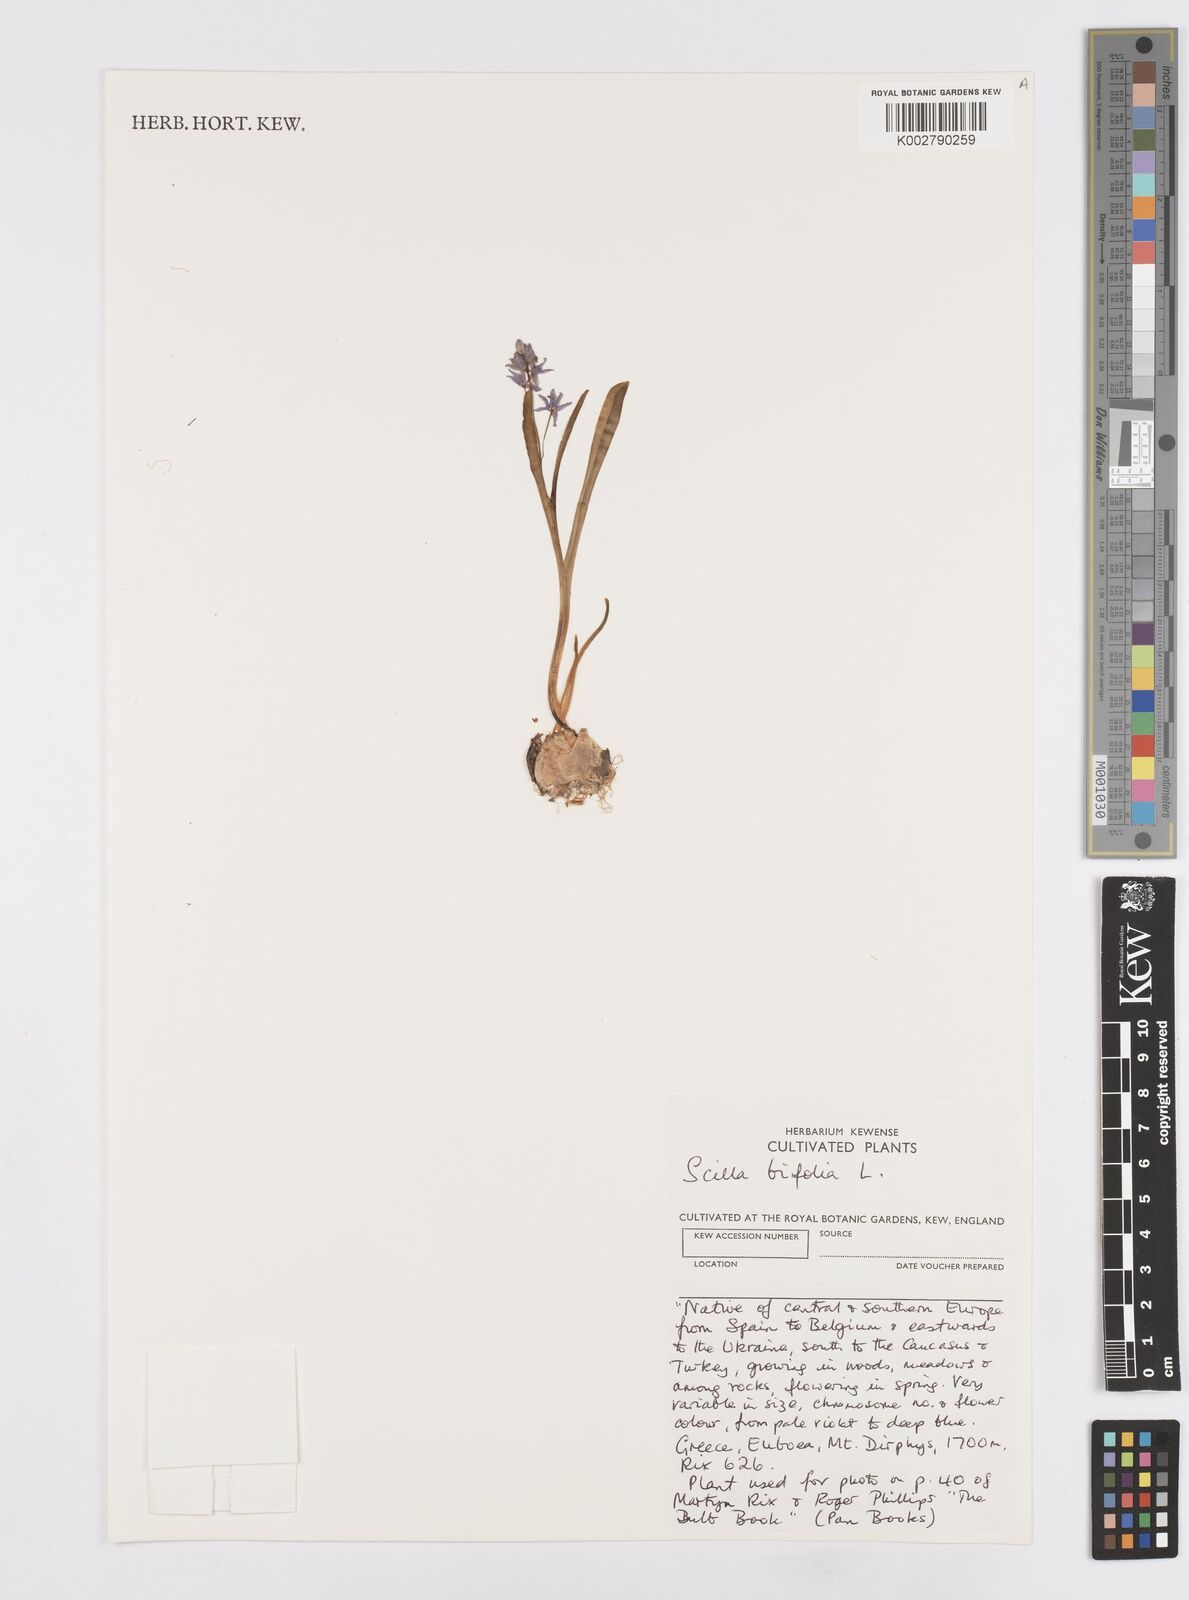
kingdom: Plantae
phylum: Tracheophyta
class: Liliopsida
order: Asparagales
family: Asparagaceae
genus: Scilla
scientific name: Scilla bifolia
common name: Alpine squill
